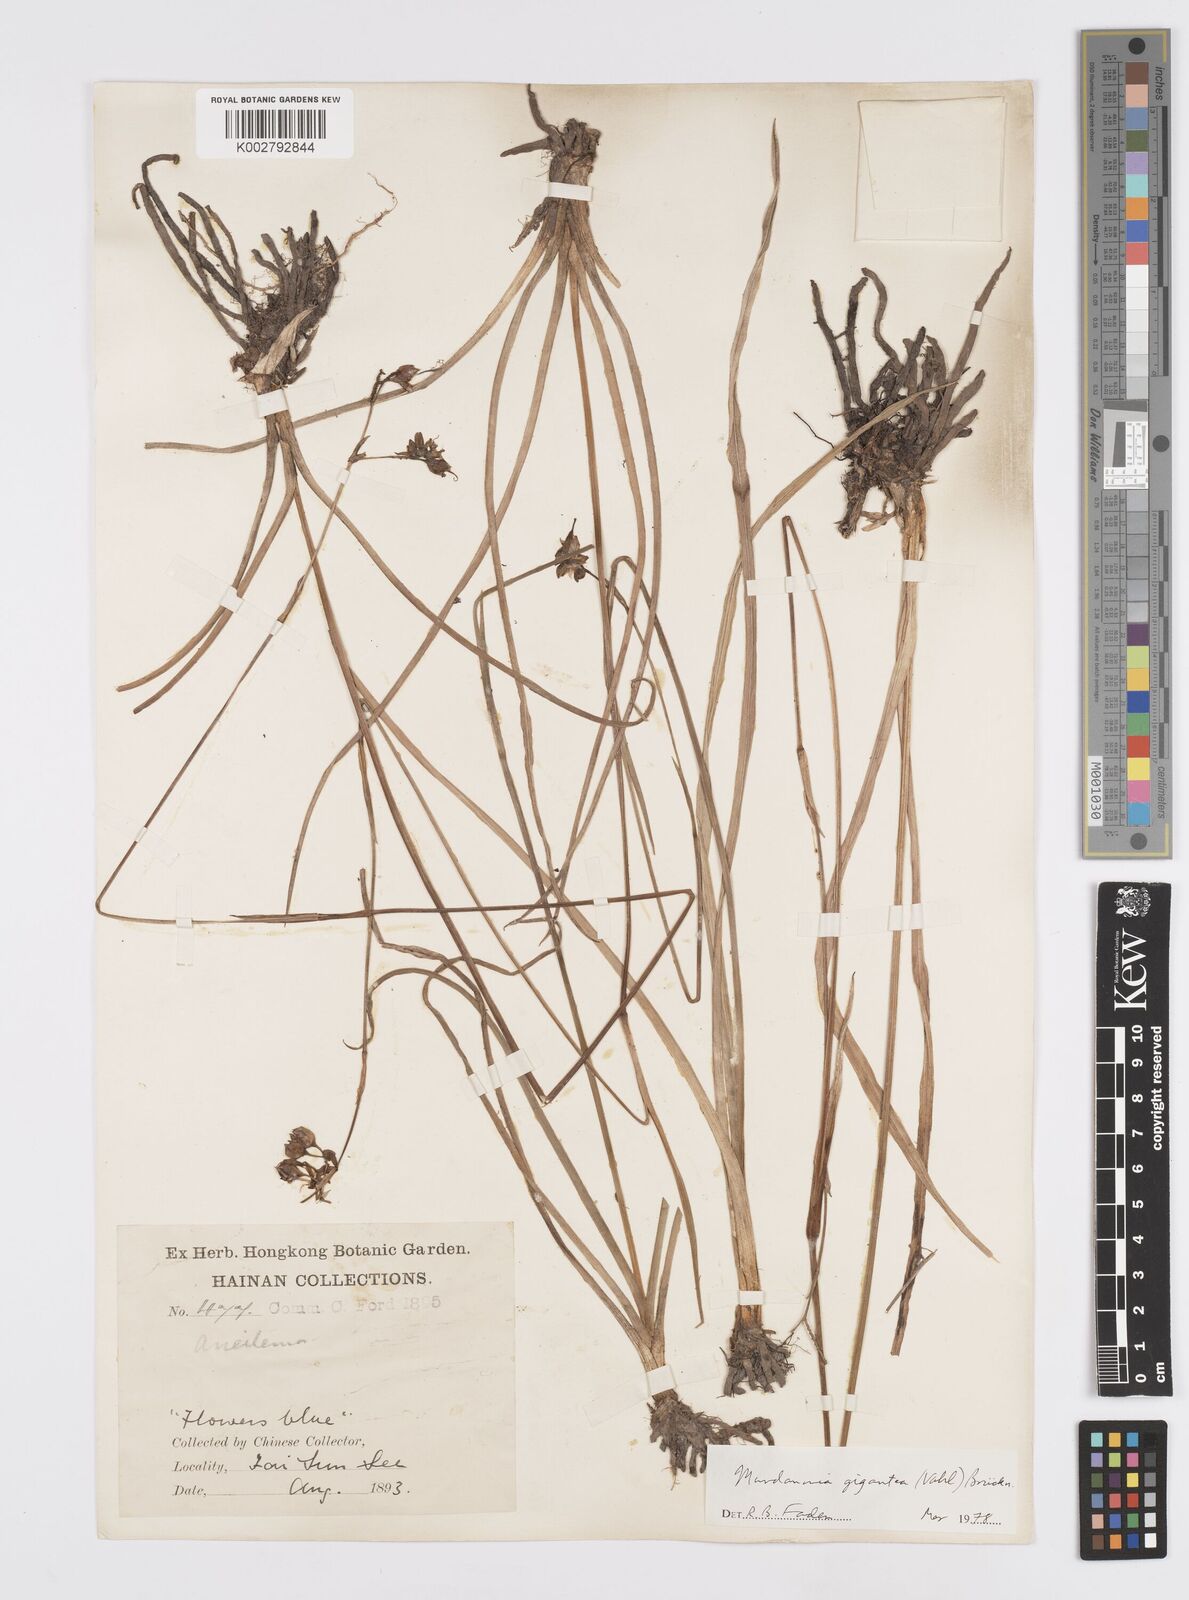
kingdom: Plantae
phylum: Tracheophyta
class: Liliopsida
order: Commelinales
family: Commelinaceae
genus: Murdannia
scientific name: Murdannia gigantea
